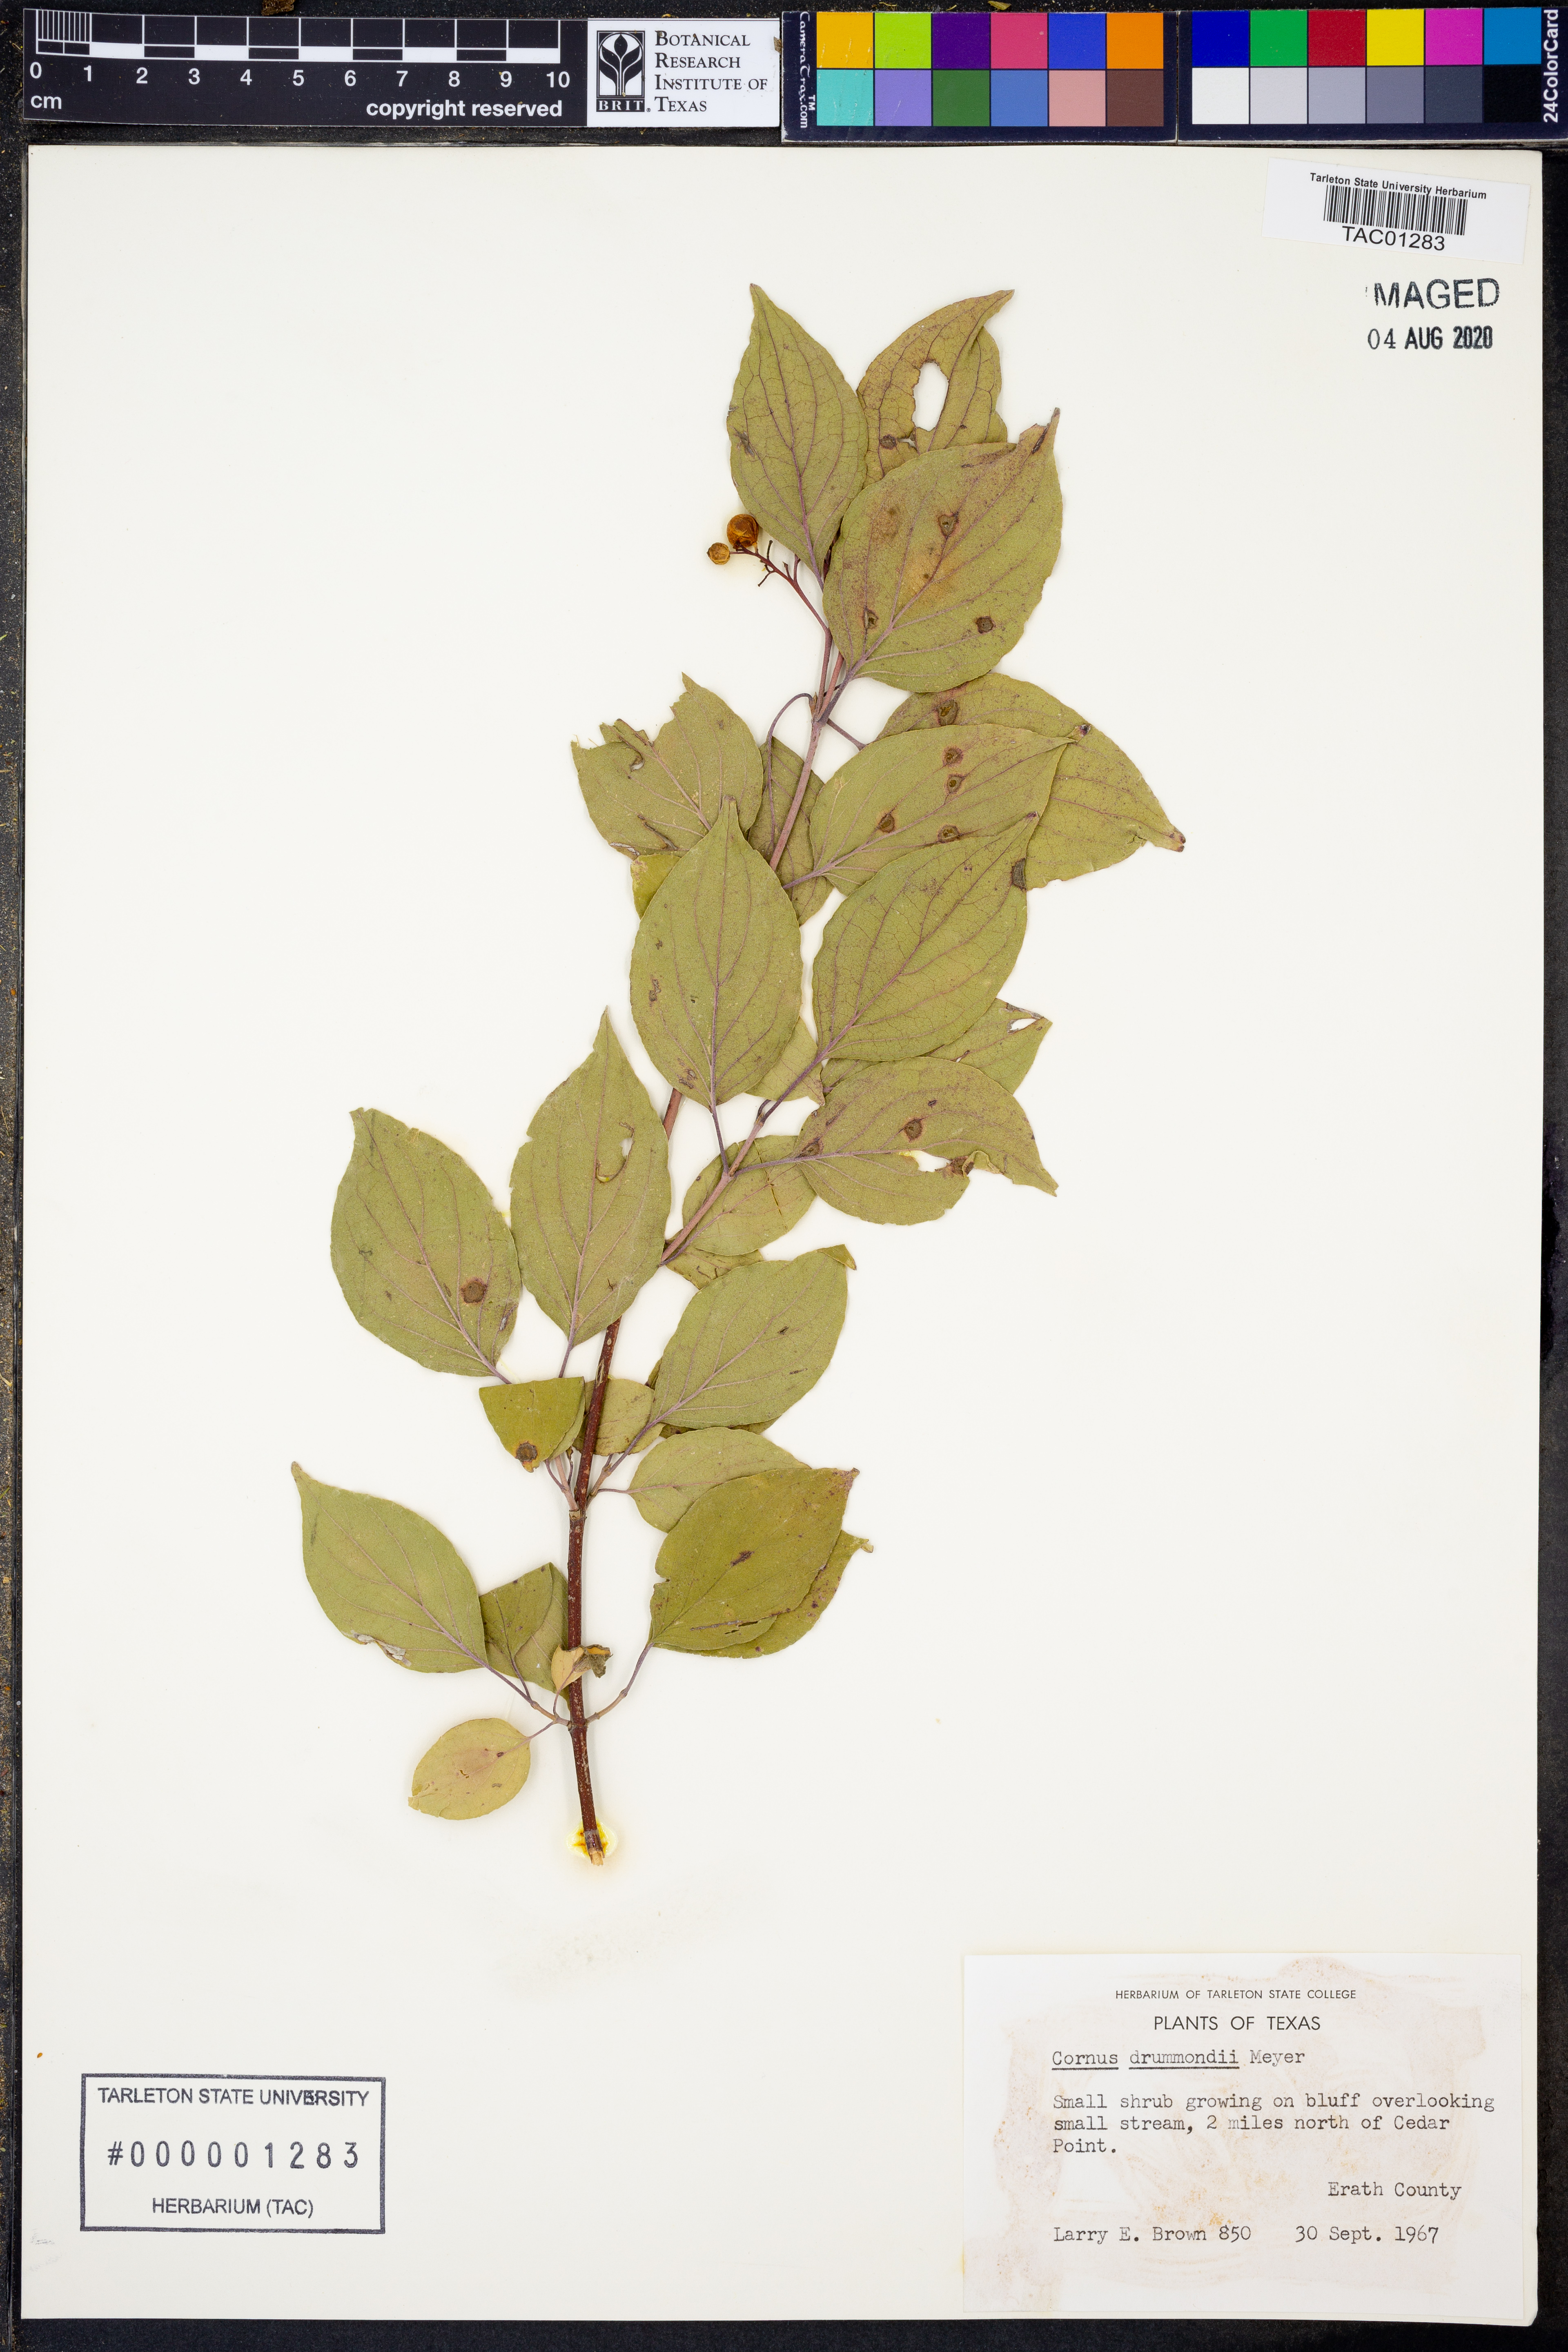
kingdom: Plantae
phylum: Tracheophyta
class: Magnoliopsida
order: Cornales
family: Cornaceae
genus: Cornus
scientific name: Cornus drummondii
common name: Rough-leaf dogwood
